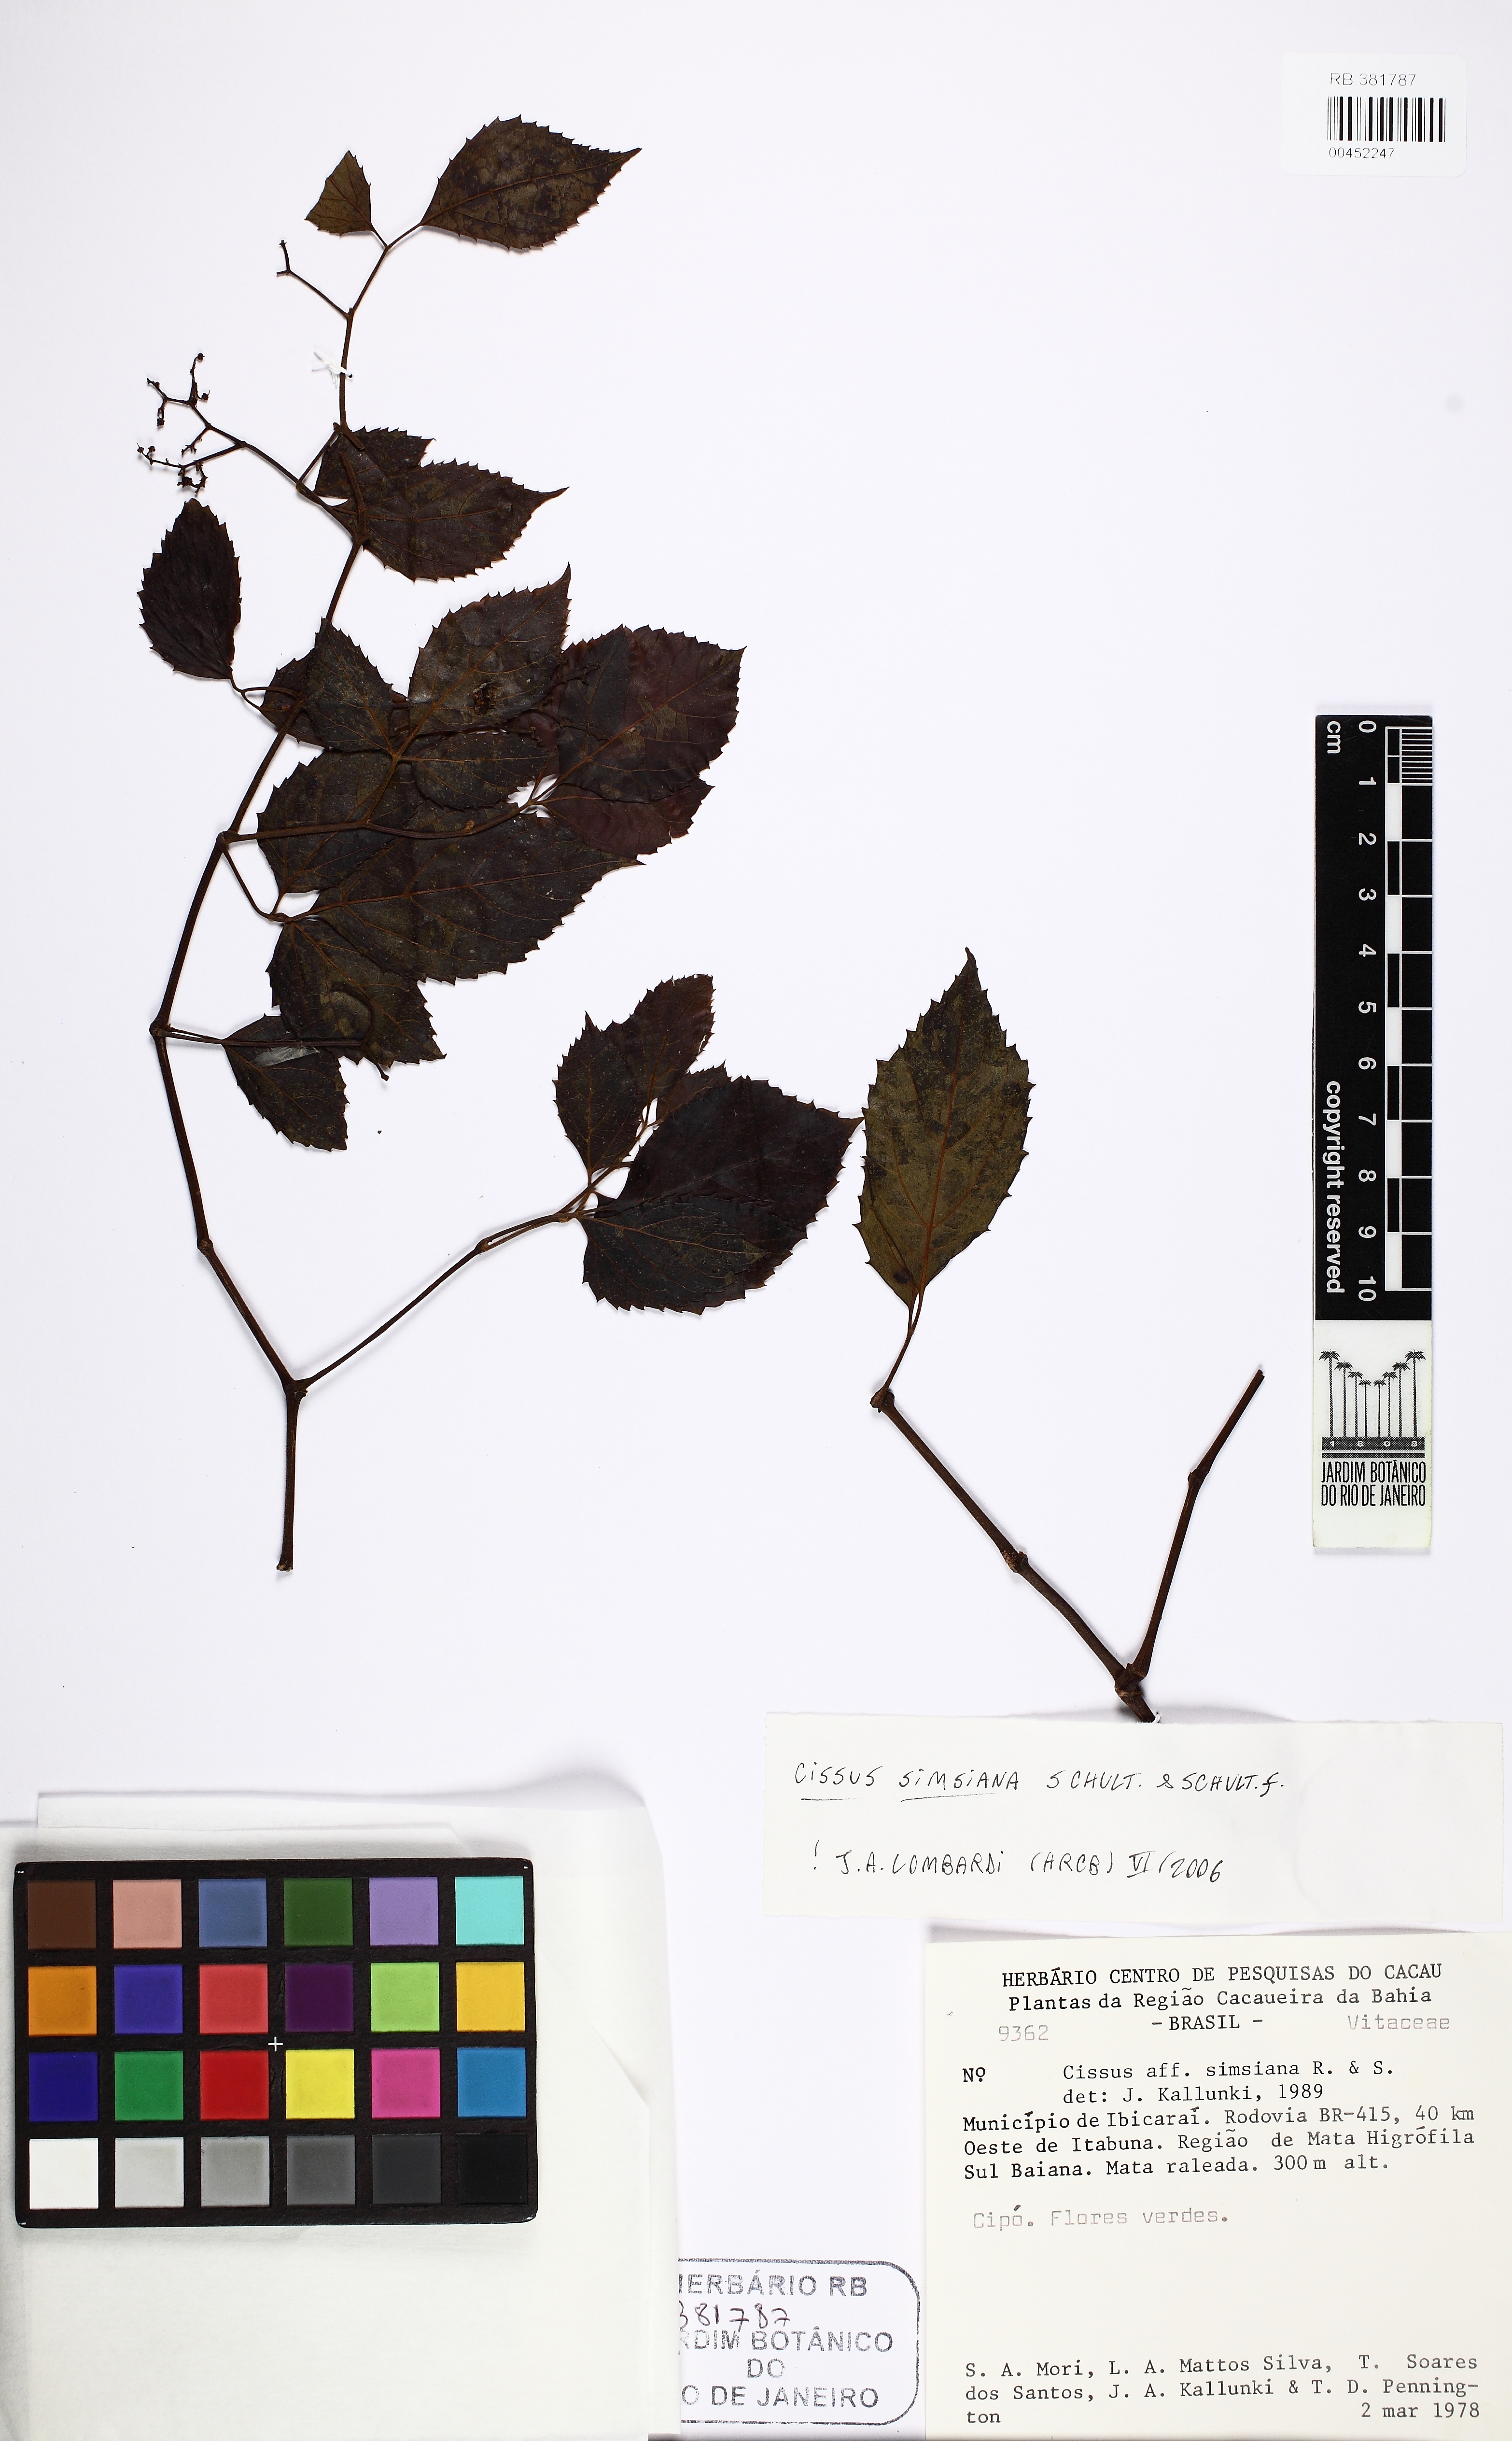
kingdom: Plantae
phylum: Tracheophyta
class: Magnoliopsida
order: Vitales
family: Vitaceae
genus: Clematicissus
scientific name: Clematicissus simsiana
